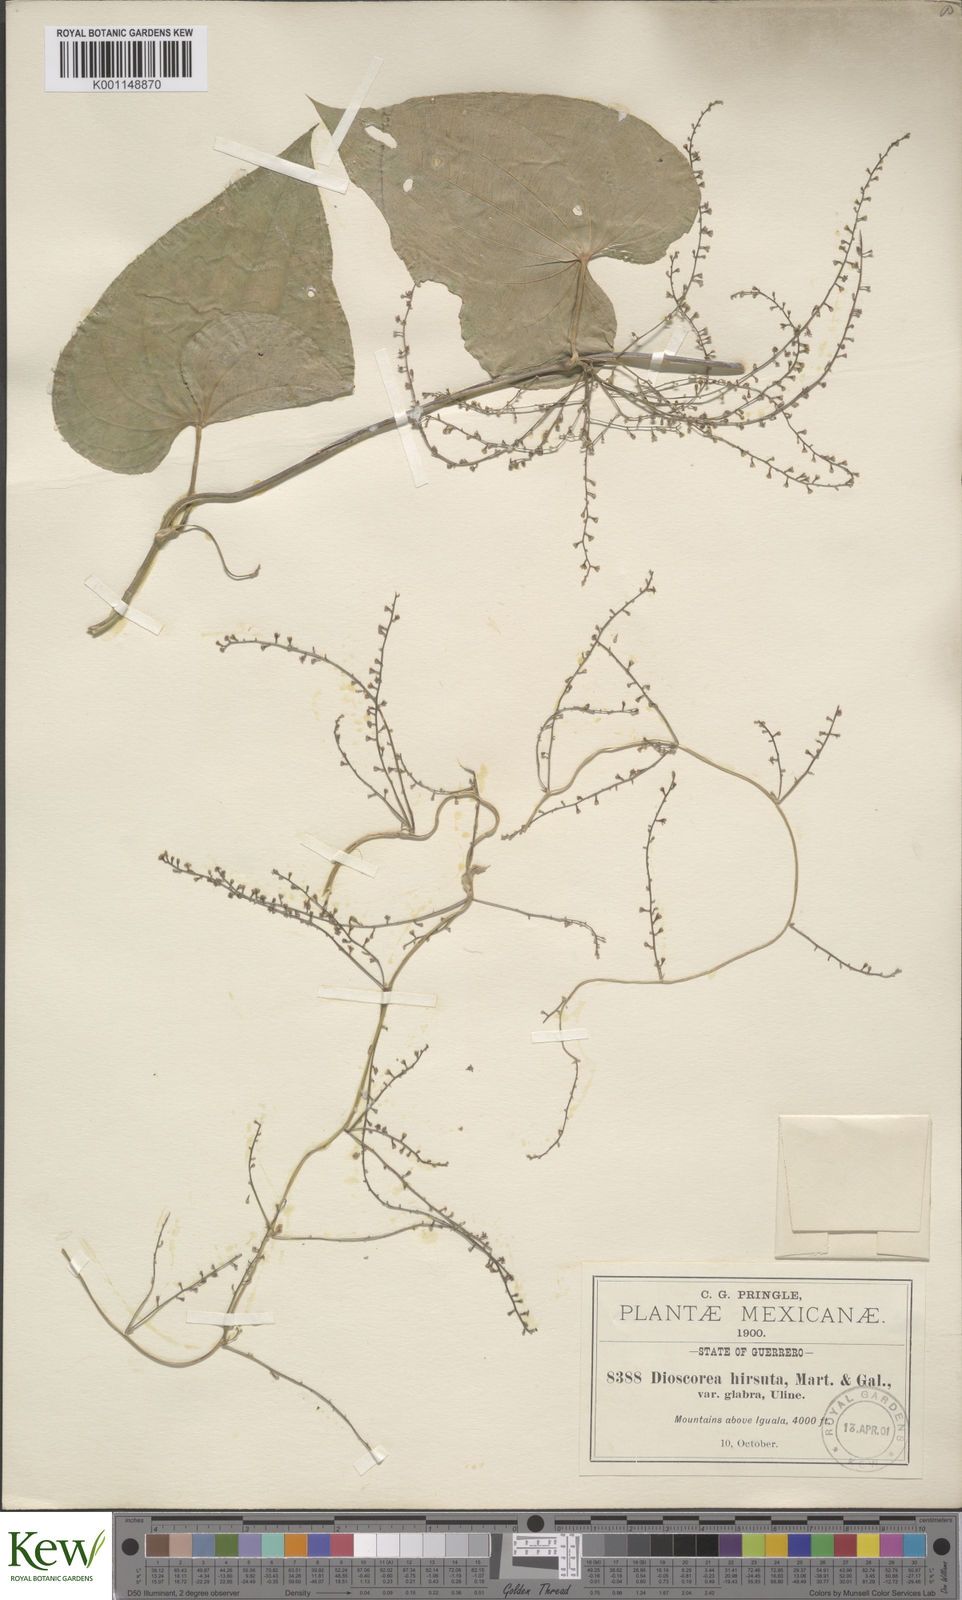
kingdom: Plantae
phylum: Tracheophyta
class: Liliopsida
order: Dioscoreales
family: Dioscoreaceae
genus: Dioscorea
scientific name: Dioscorea convolvulacea
